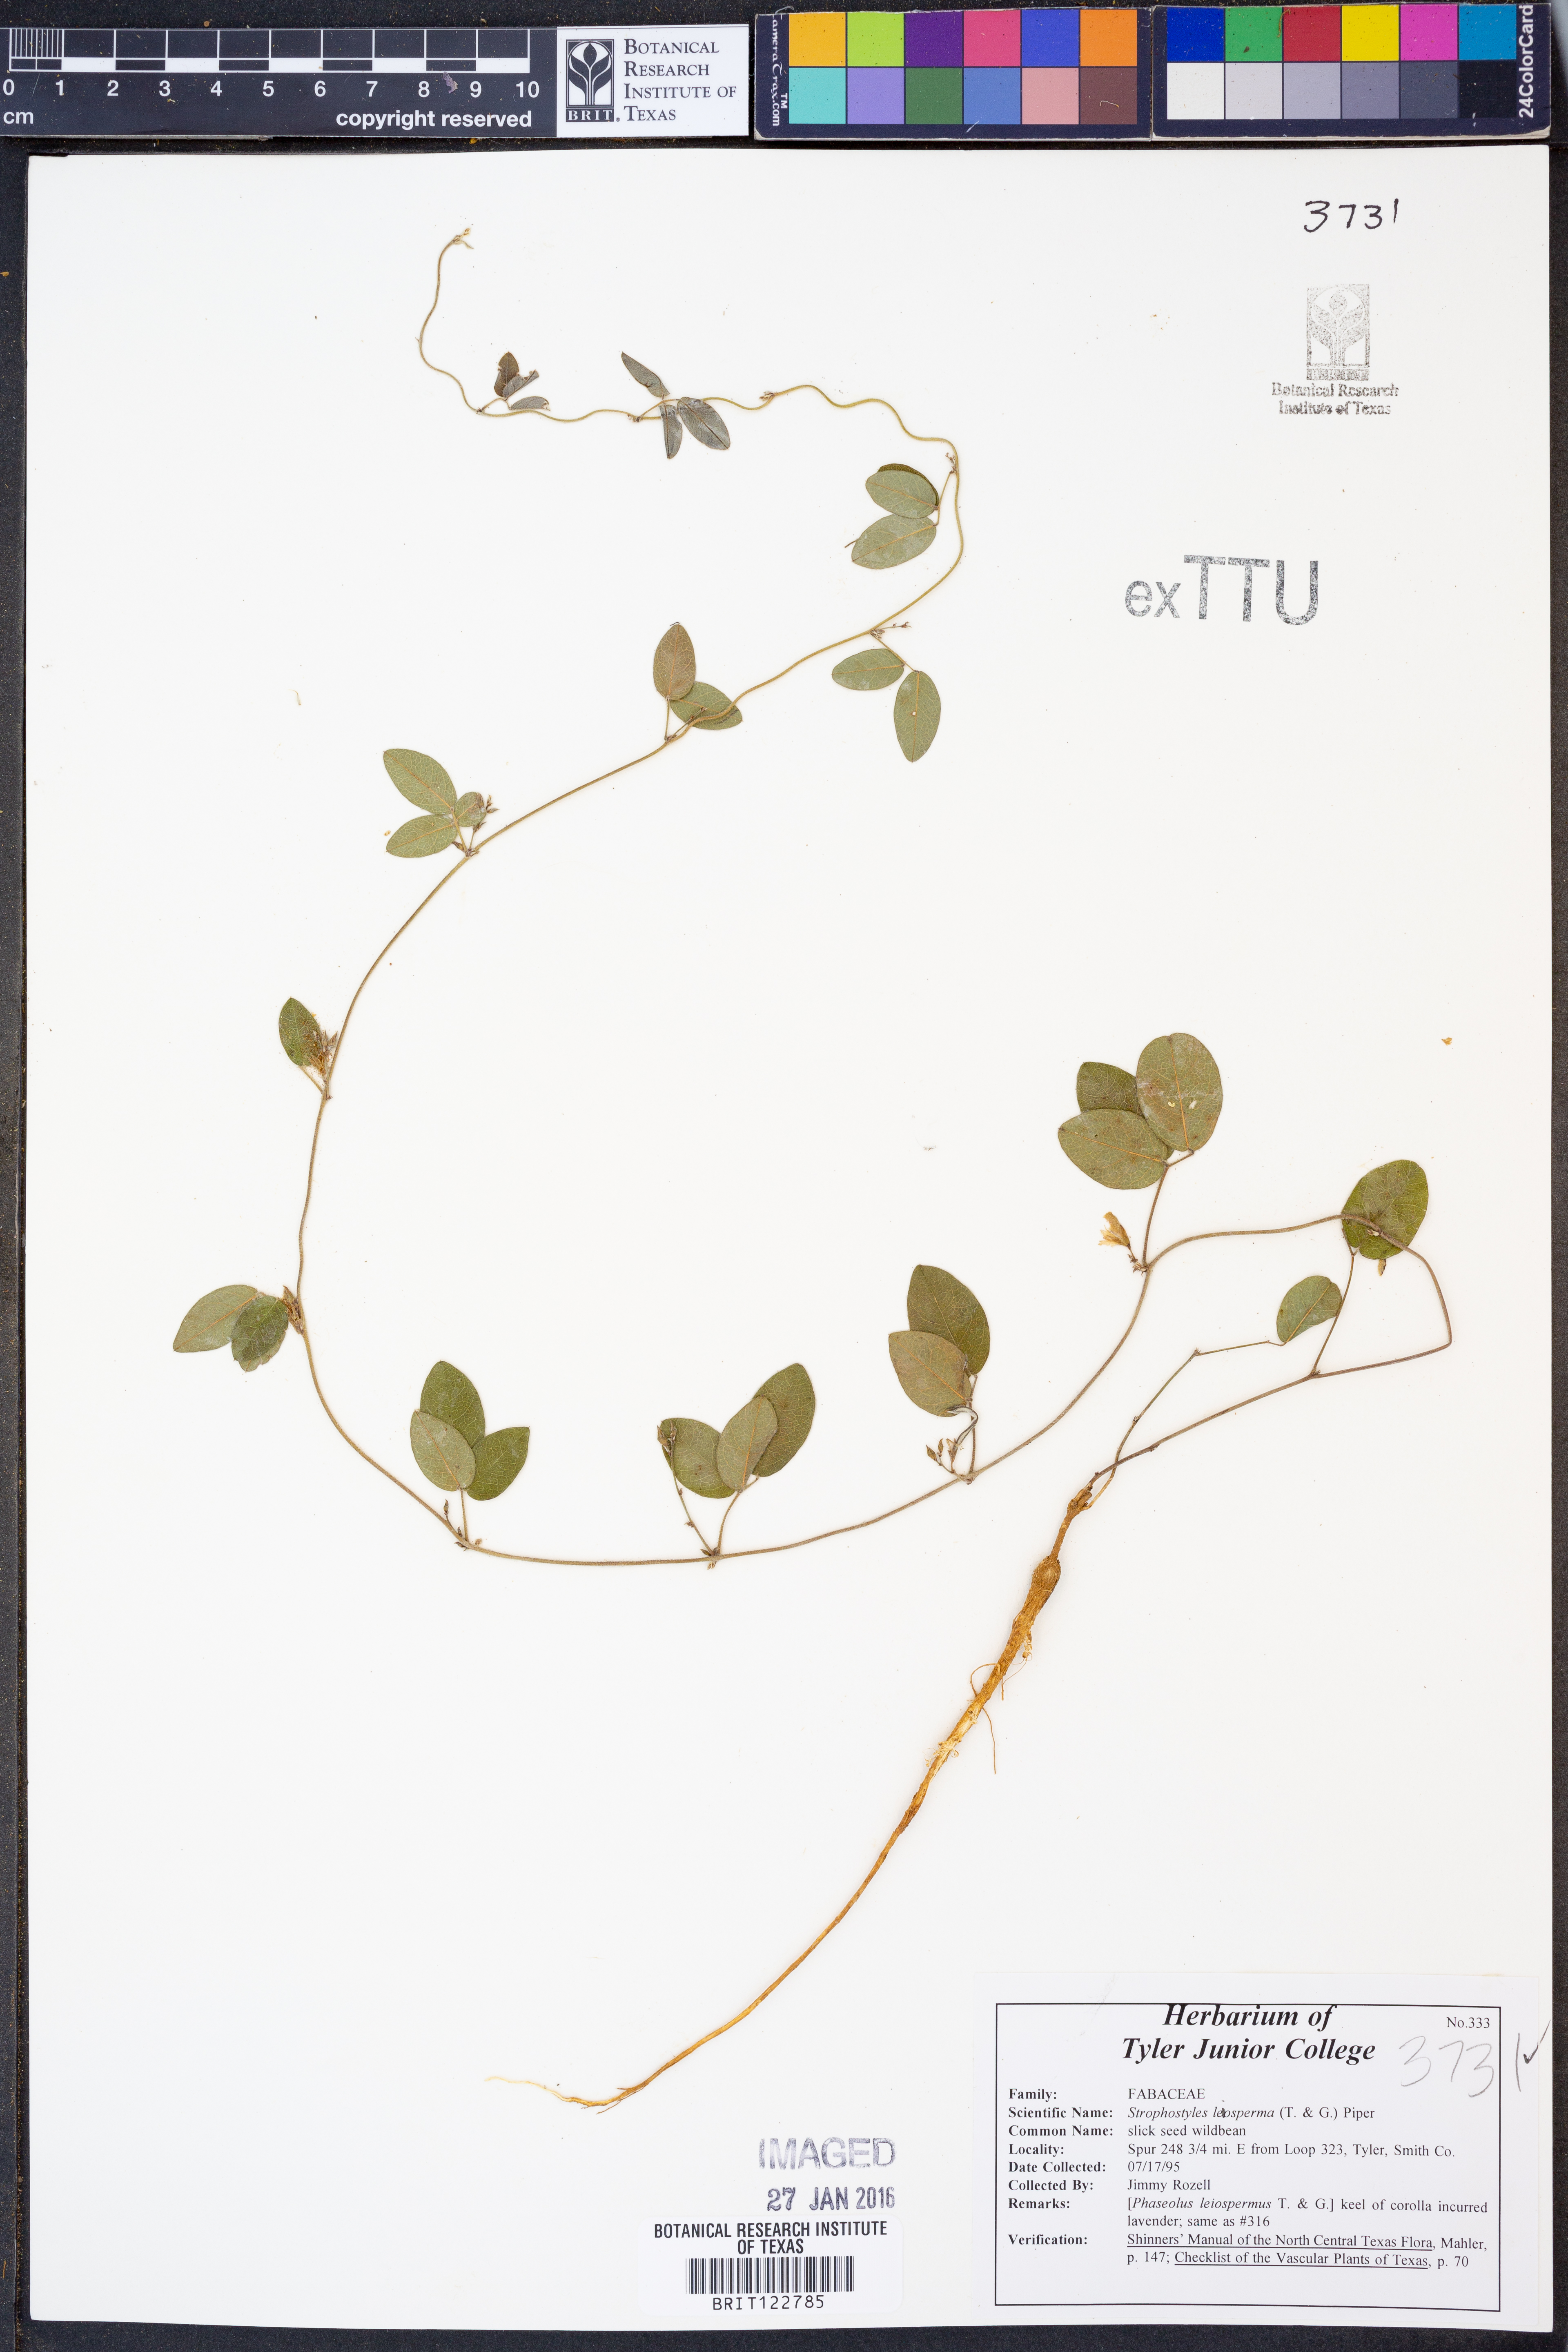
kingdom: Plantae
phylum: Tracheophyta
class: Magnoliopsida
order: Fabales
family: Fabaceae
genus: Strophostyles
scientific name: Strophostyles leiosperma
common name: Smooth-seed wild bean
